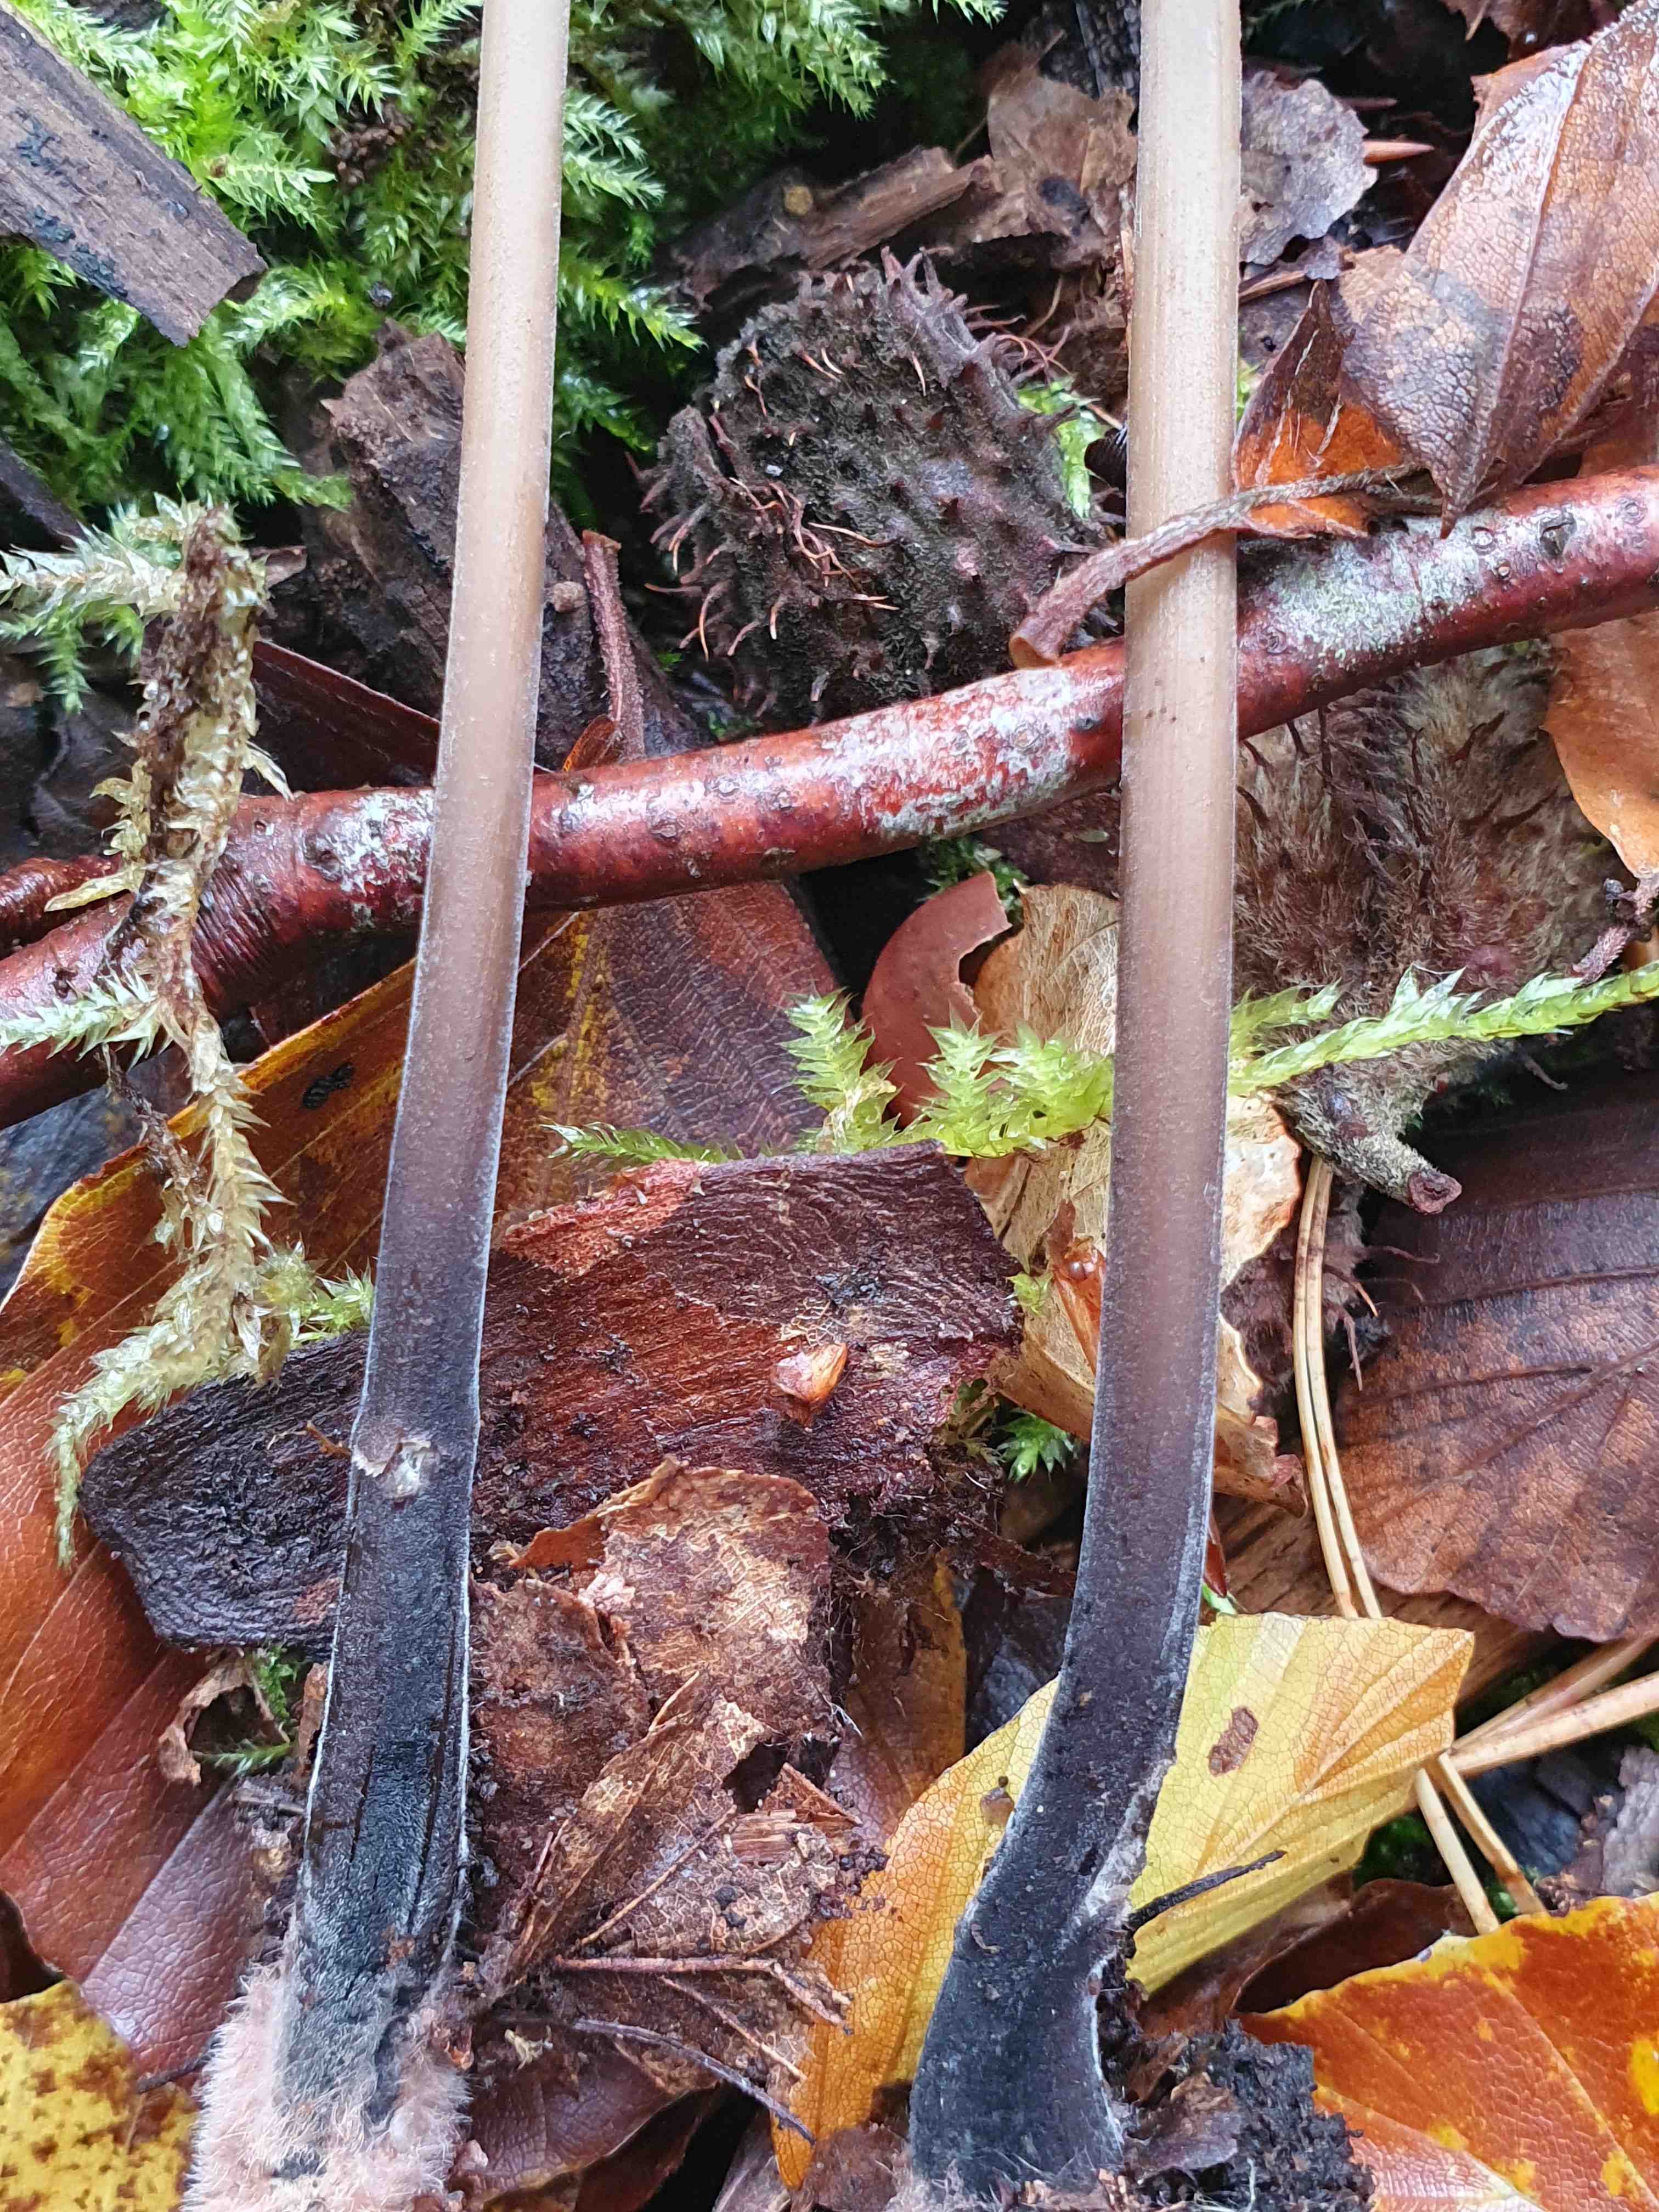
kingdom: Fungi
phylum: Basidiomycota
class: Agaricomycetes
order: Agaricales
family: Omphalotaceae
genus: Mycetinis
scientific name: Mycetinis alliaceus
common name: stor løghat
